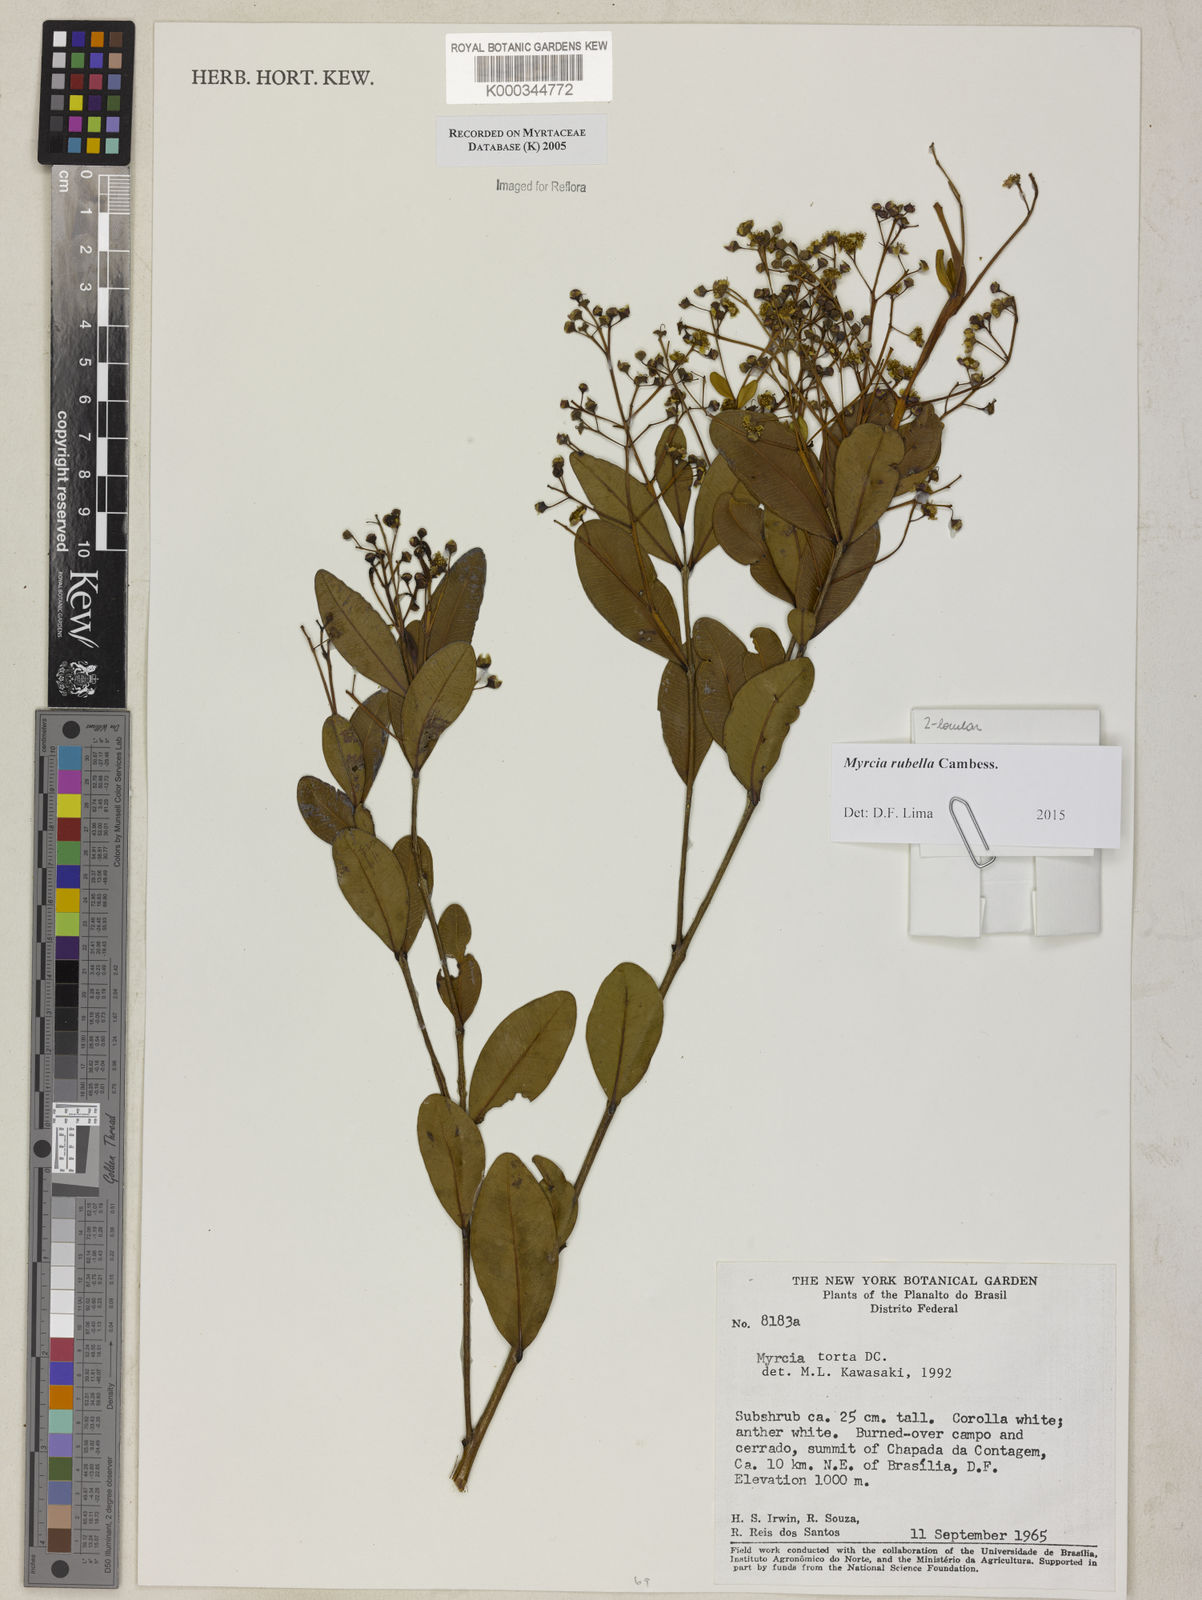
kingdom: Plantae
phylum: Tracheophyta
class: Magnoliopsida
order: Myrtales
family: Myrtaceae
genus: Myrcia
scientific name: Myrcia guianensis
